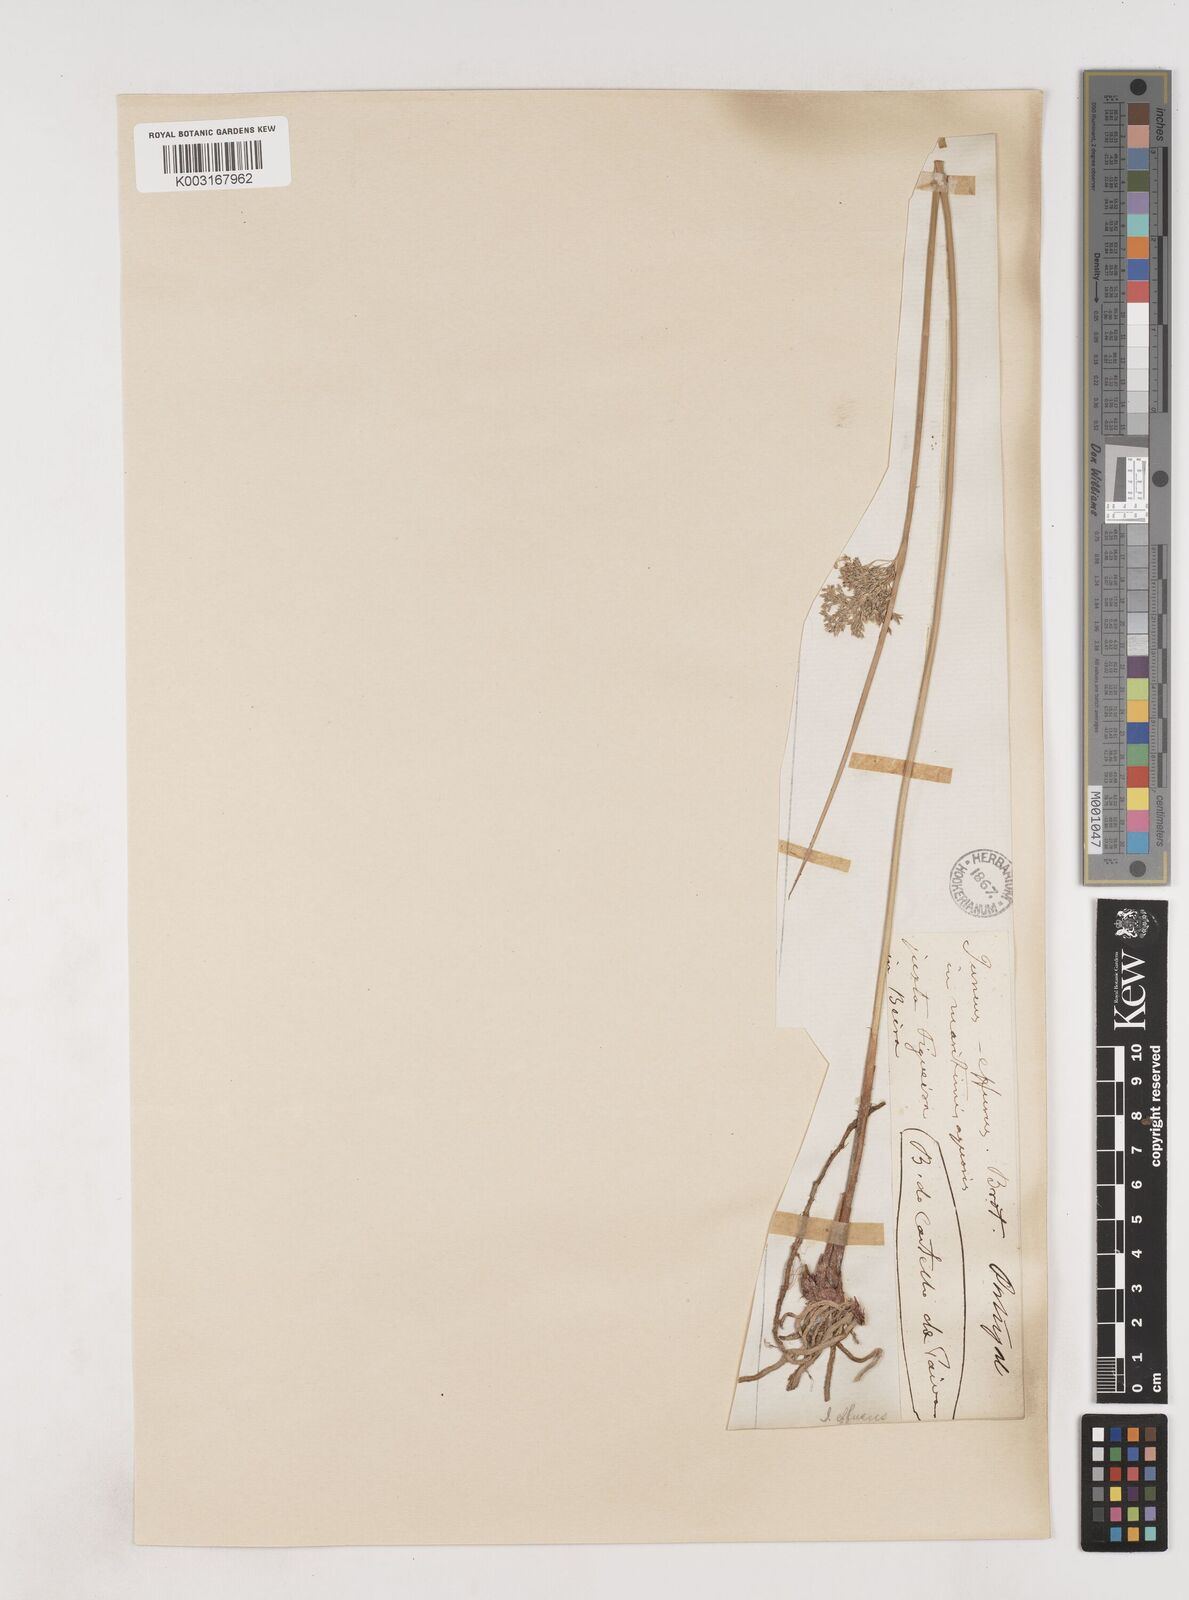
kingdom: Plantae
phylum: Tracheophyta
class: Liliopsida
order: Poales
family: Juncaceae
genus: Juncus
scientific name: Juncus effusus
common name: Soft rush
